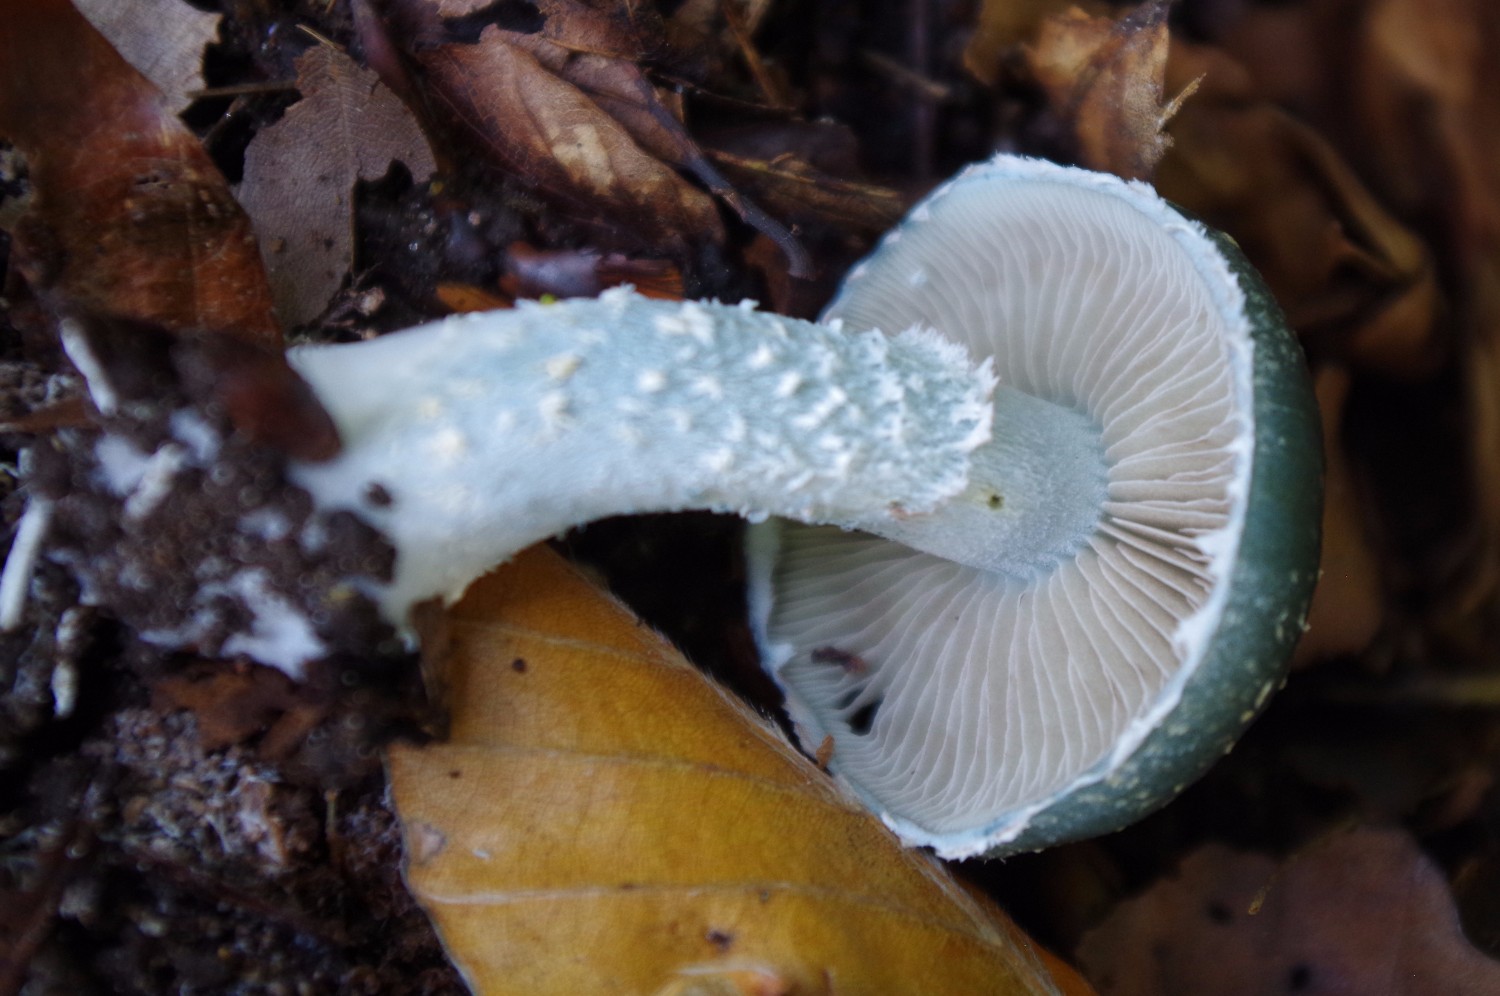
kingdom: Fungi
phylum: Basidiomycota
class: Agaricomycetes
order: Agaricales
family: Strophariaceae
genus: Stropharia
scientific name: Stropharia cyanea
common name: blågrøn bredblad
